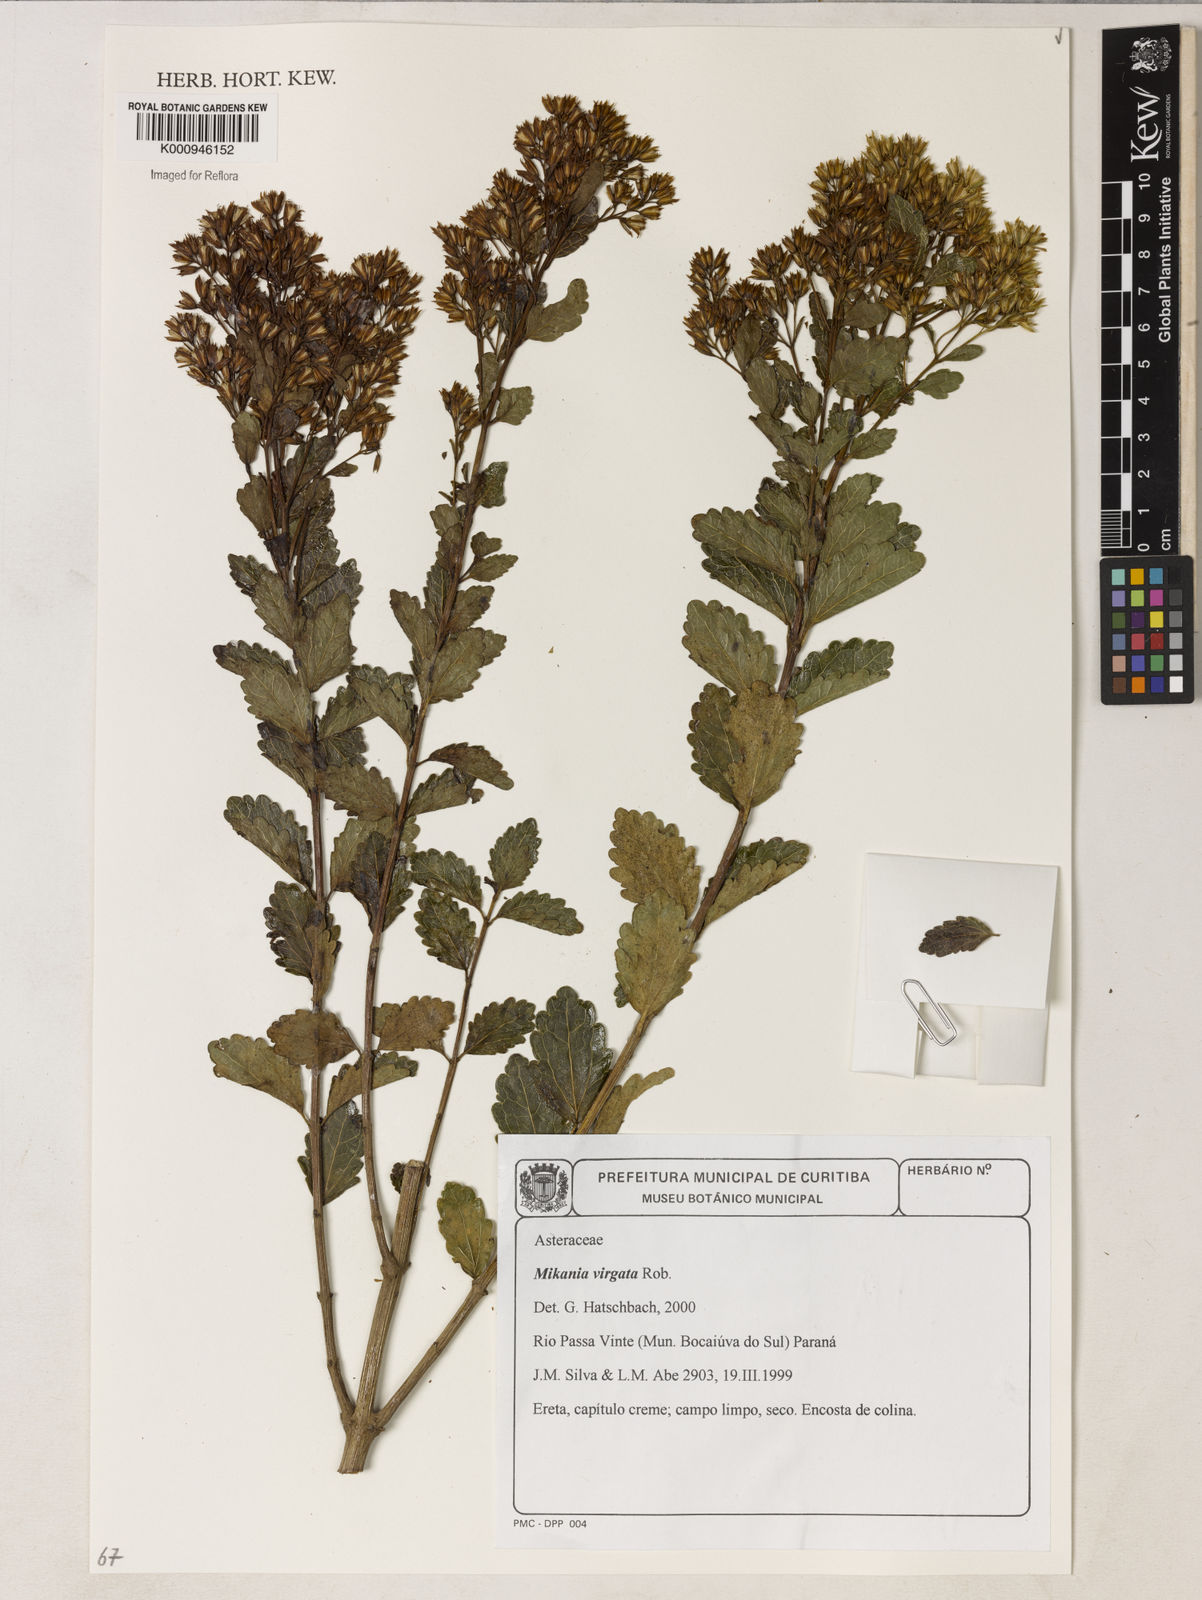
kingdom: Plantae
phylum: Tracheophyta
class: Magnoliopsida
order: Asterales
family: Asteraceae
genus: Mikania
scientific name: Mikania virgata
